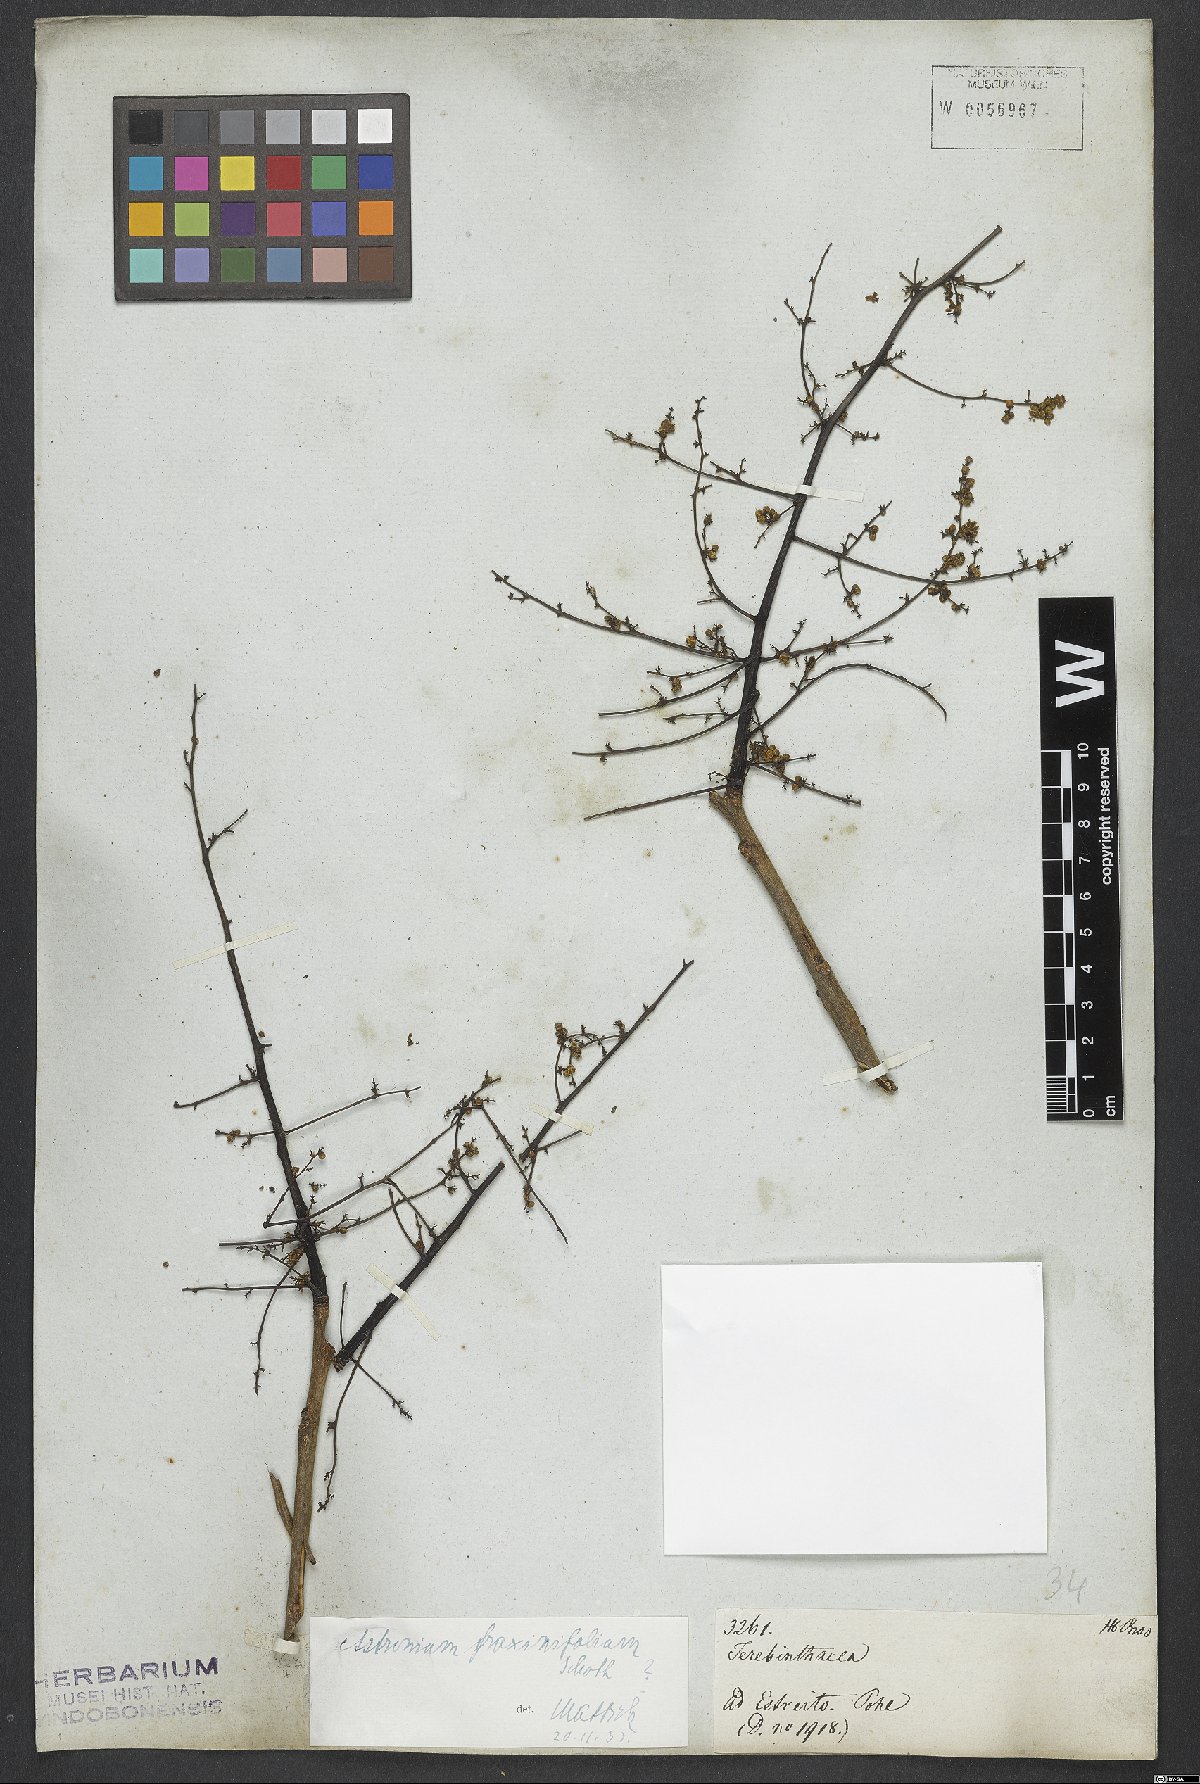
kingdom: Plantae
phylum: Tracheophyta
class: Magnoliopsida
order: Sapindales
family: Anacardiaceae
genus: Astronium
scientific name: Astronium fraxinifolium
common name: Tigerwood
